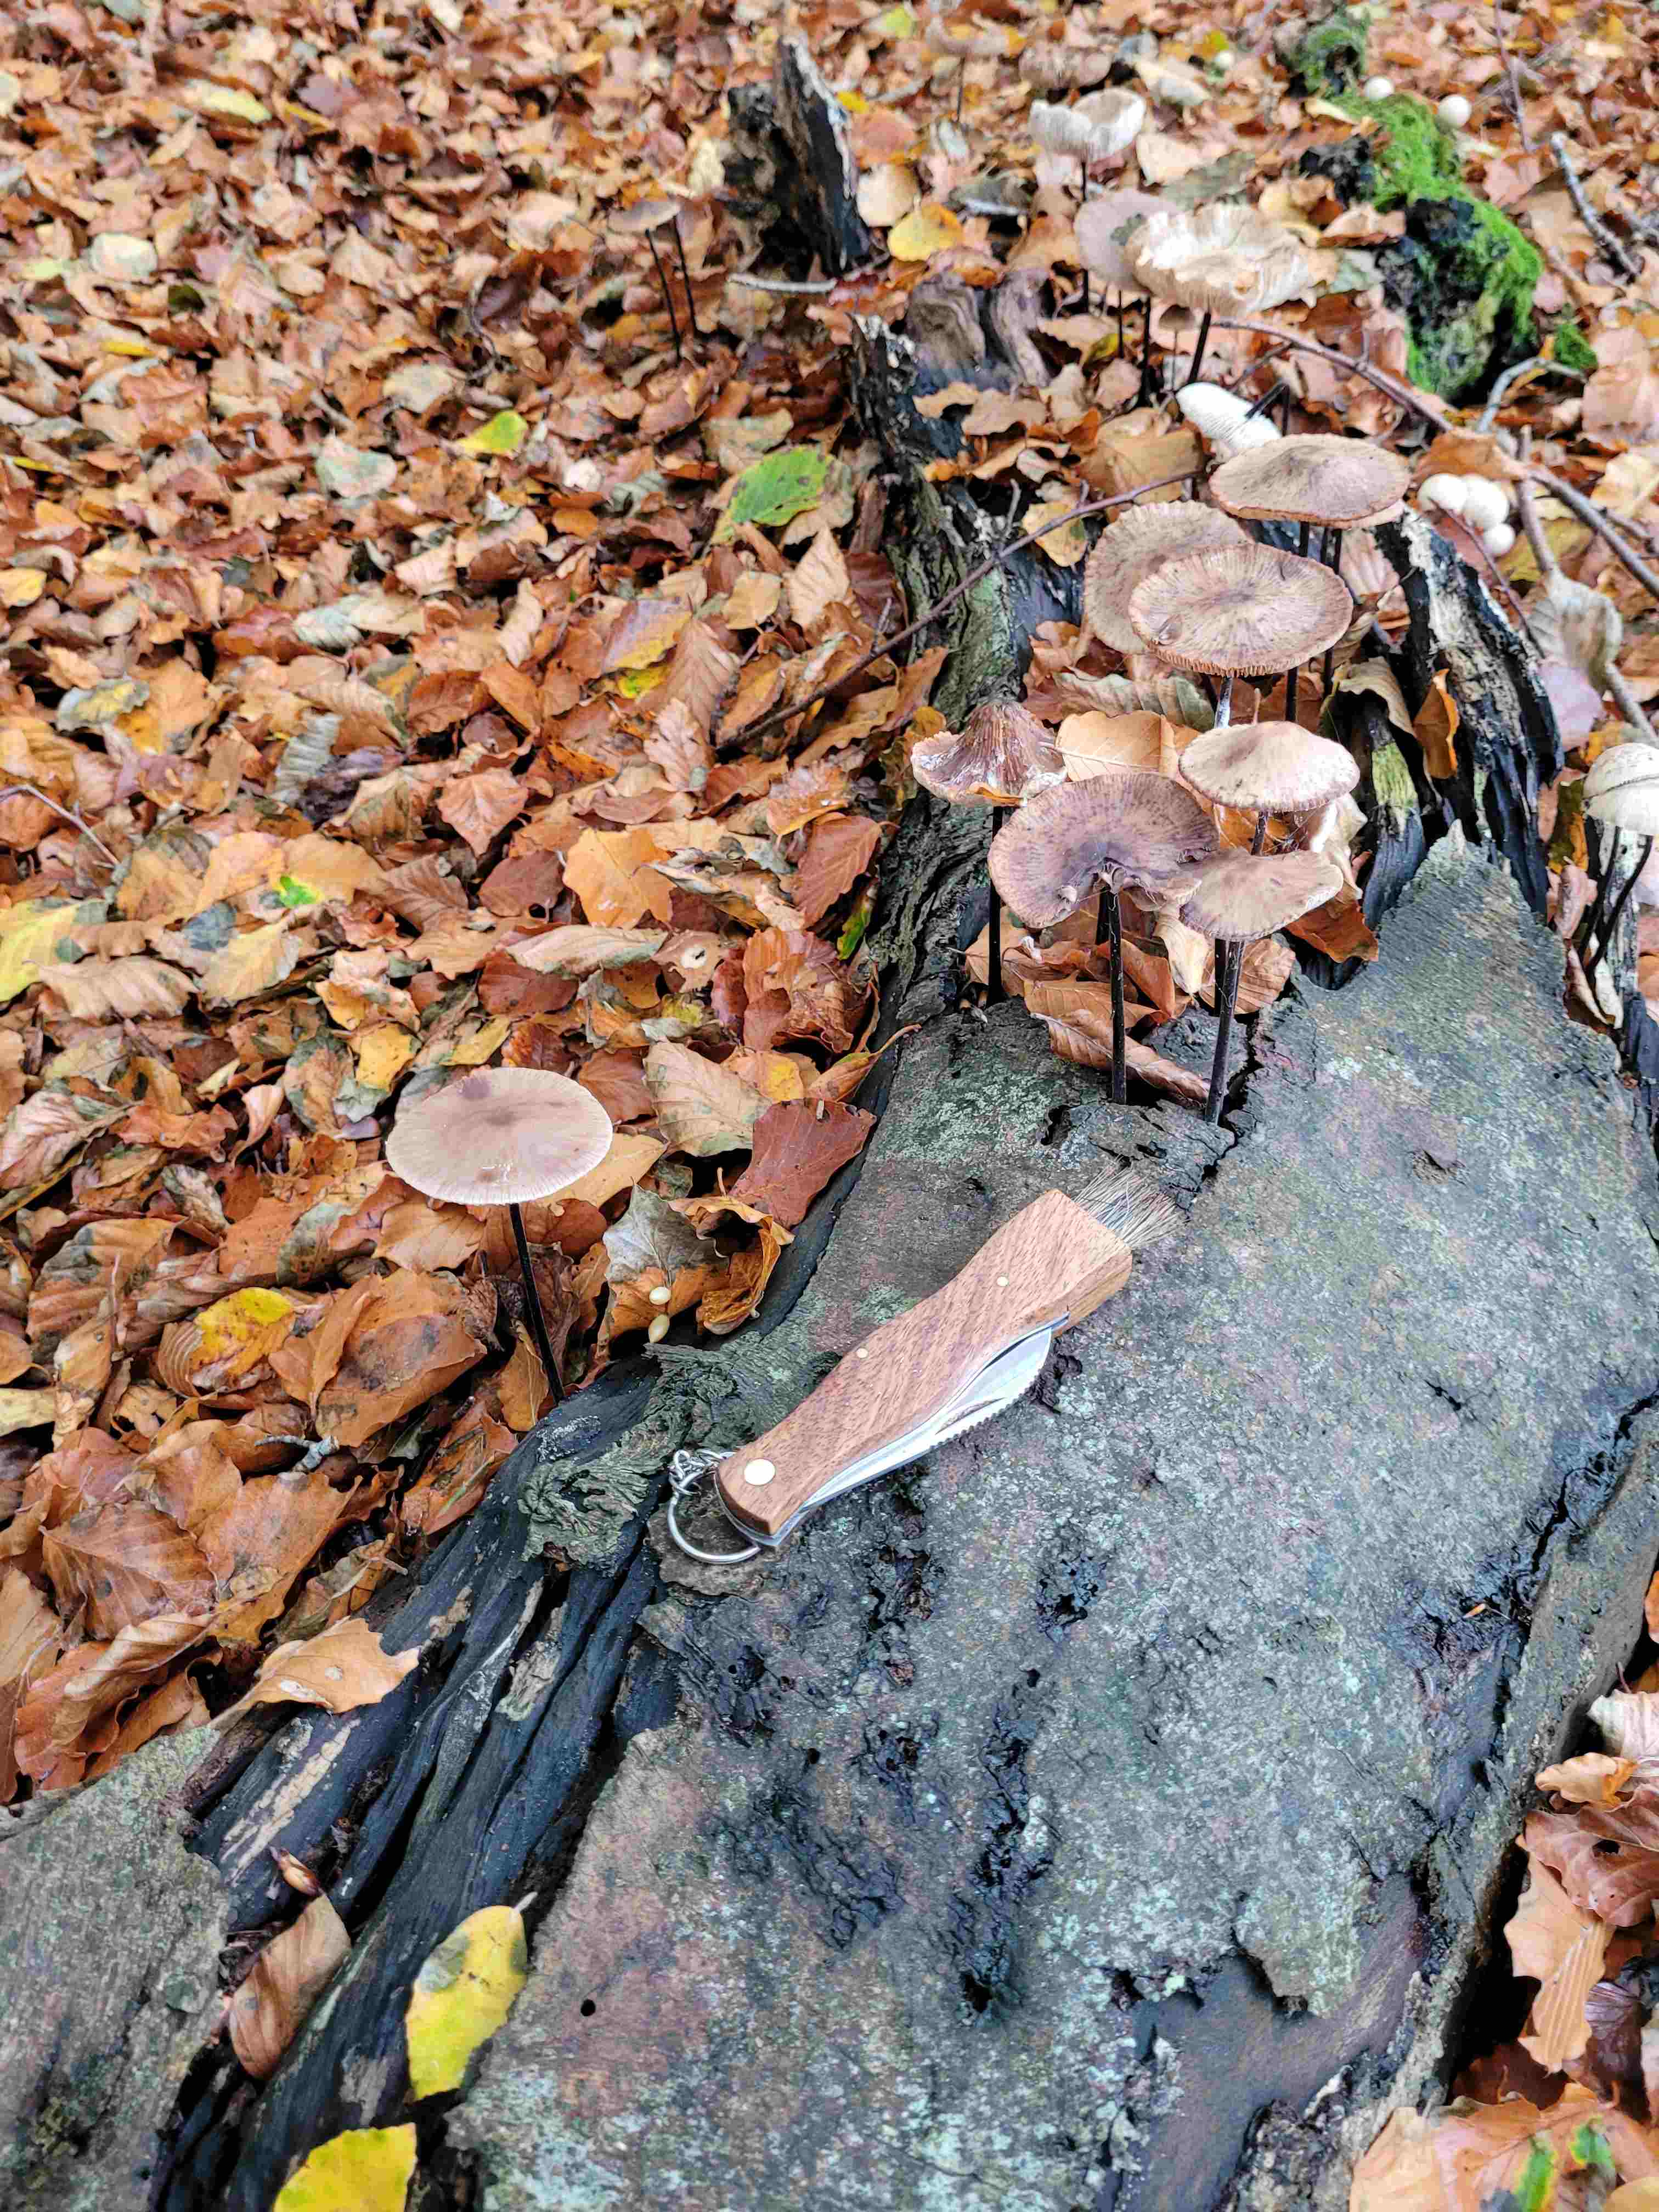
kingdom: Fungi
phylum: Basidiomycota
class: Agaricomycetes
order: Agaricales
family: Omphalotaceae
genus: Mycetinis
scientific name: Mycetinis alliaceus
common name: stor løghat
